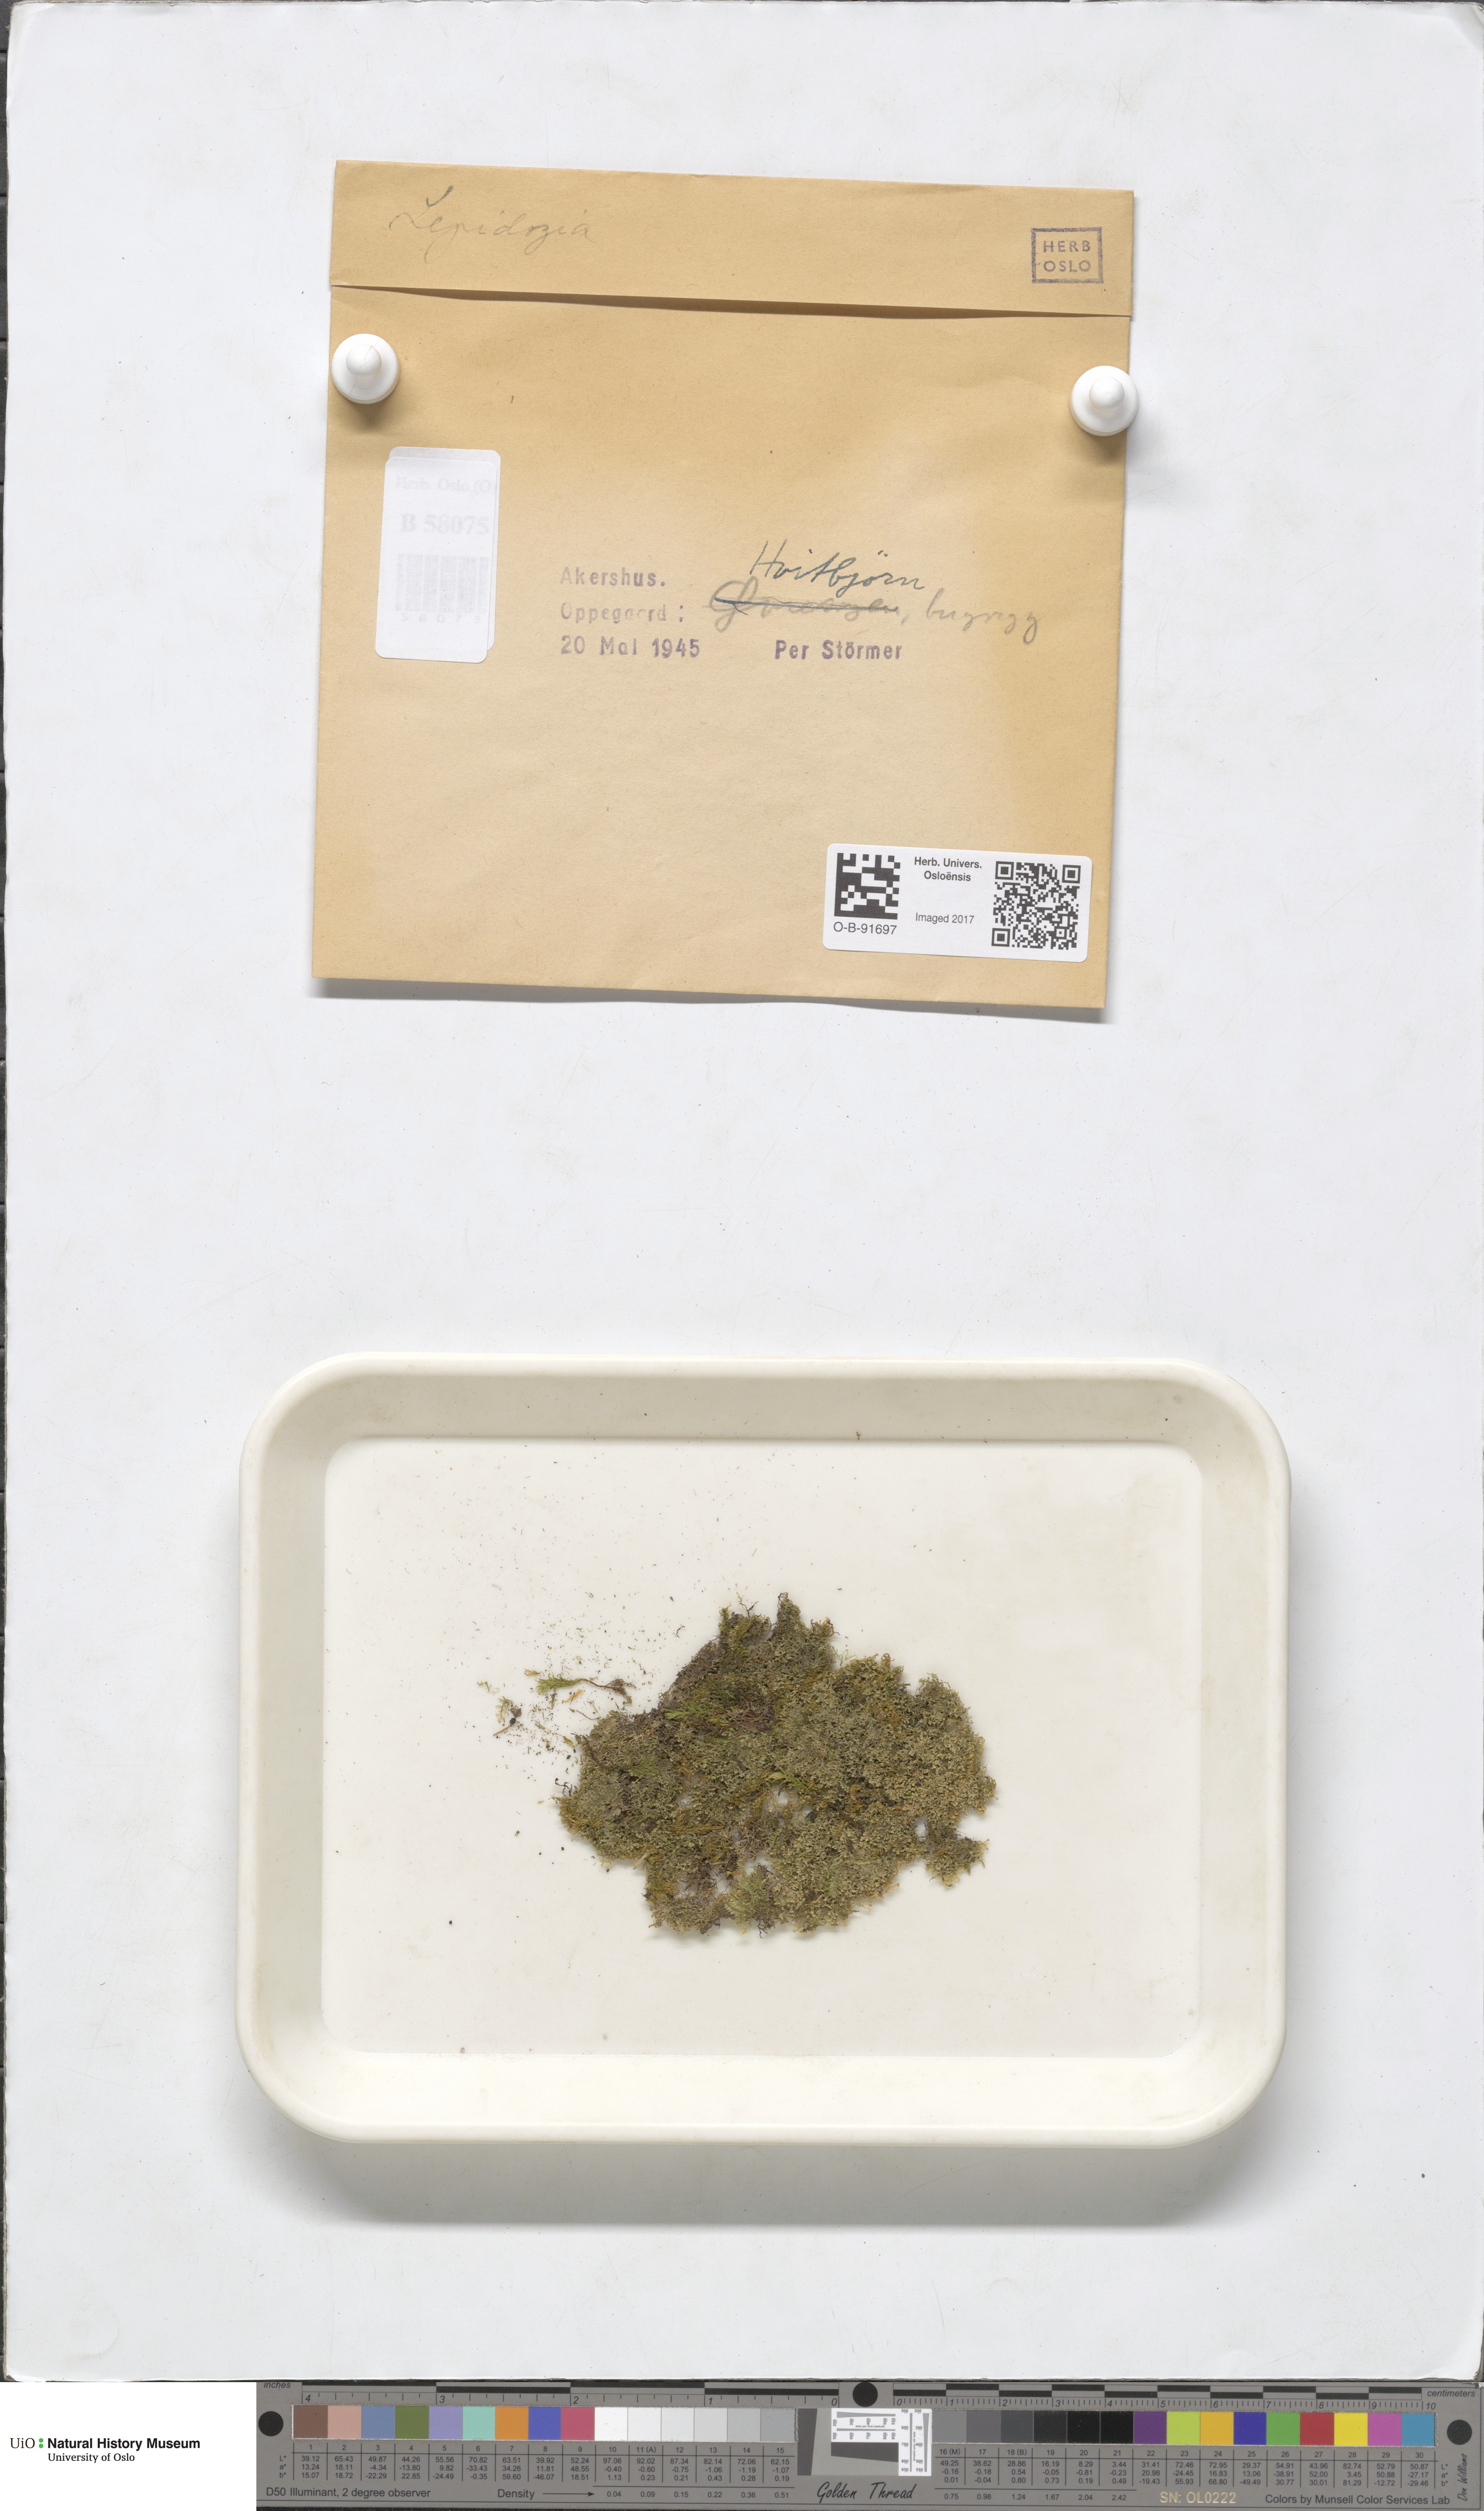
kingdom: Plantae
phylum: Marchantiophyta
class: Jungermanniopsida
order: Jungermanniales
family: Lepidoziaceae
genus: Lepidozia
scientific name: Lepidozia
